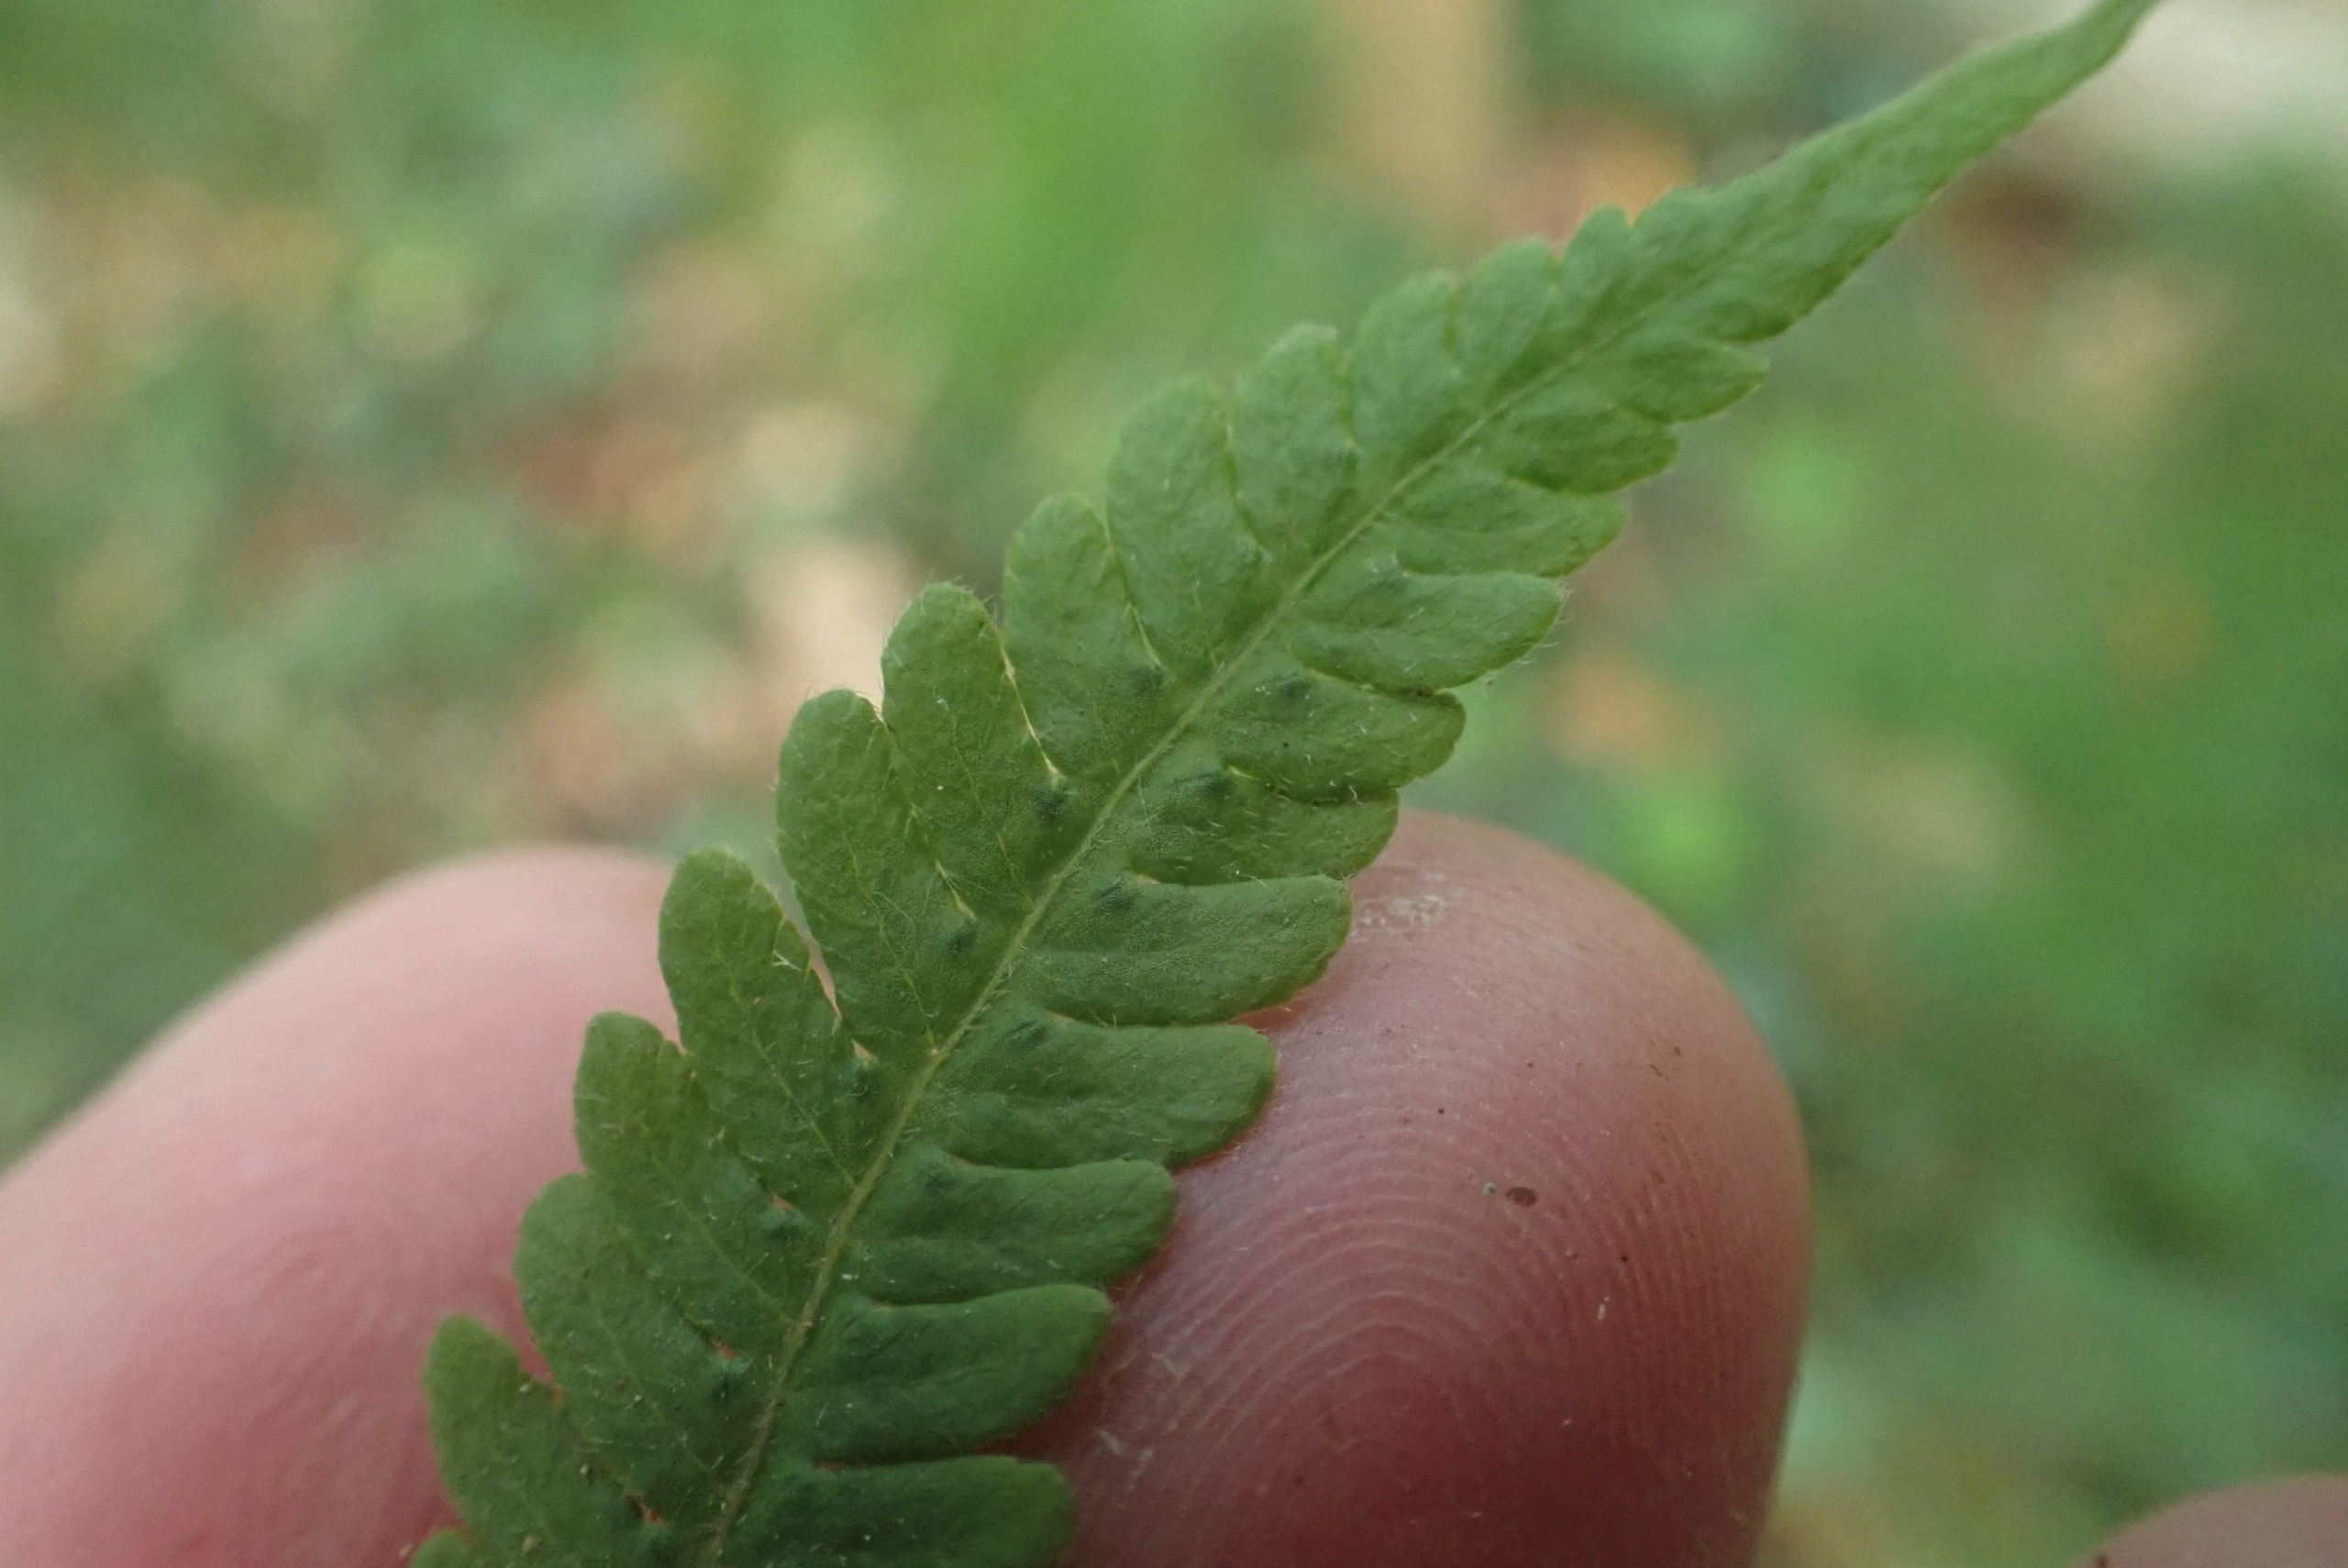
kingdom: Plantae
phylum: Tracheophyta
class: Polypodiopsida
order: Polypodiales
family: Thelypteridaceae
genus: Phegopteris
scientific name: Phegopteris connectilis
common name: Dunet egebregne
